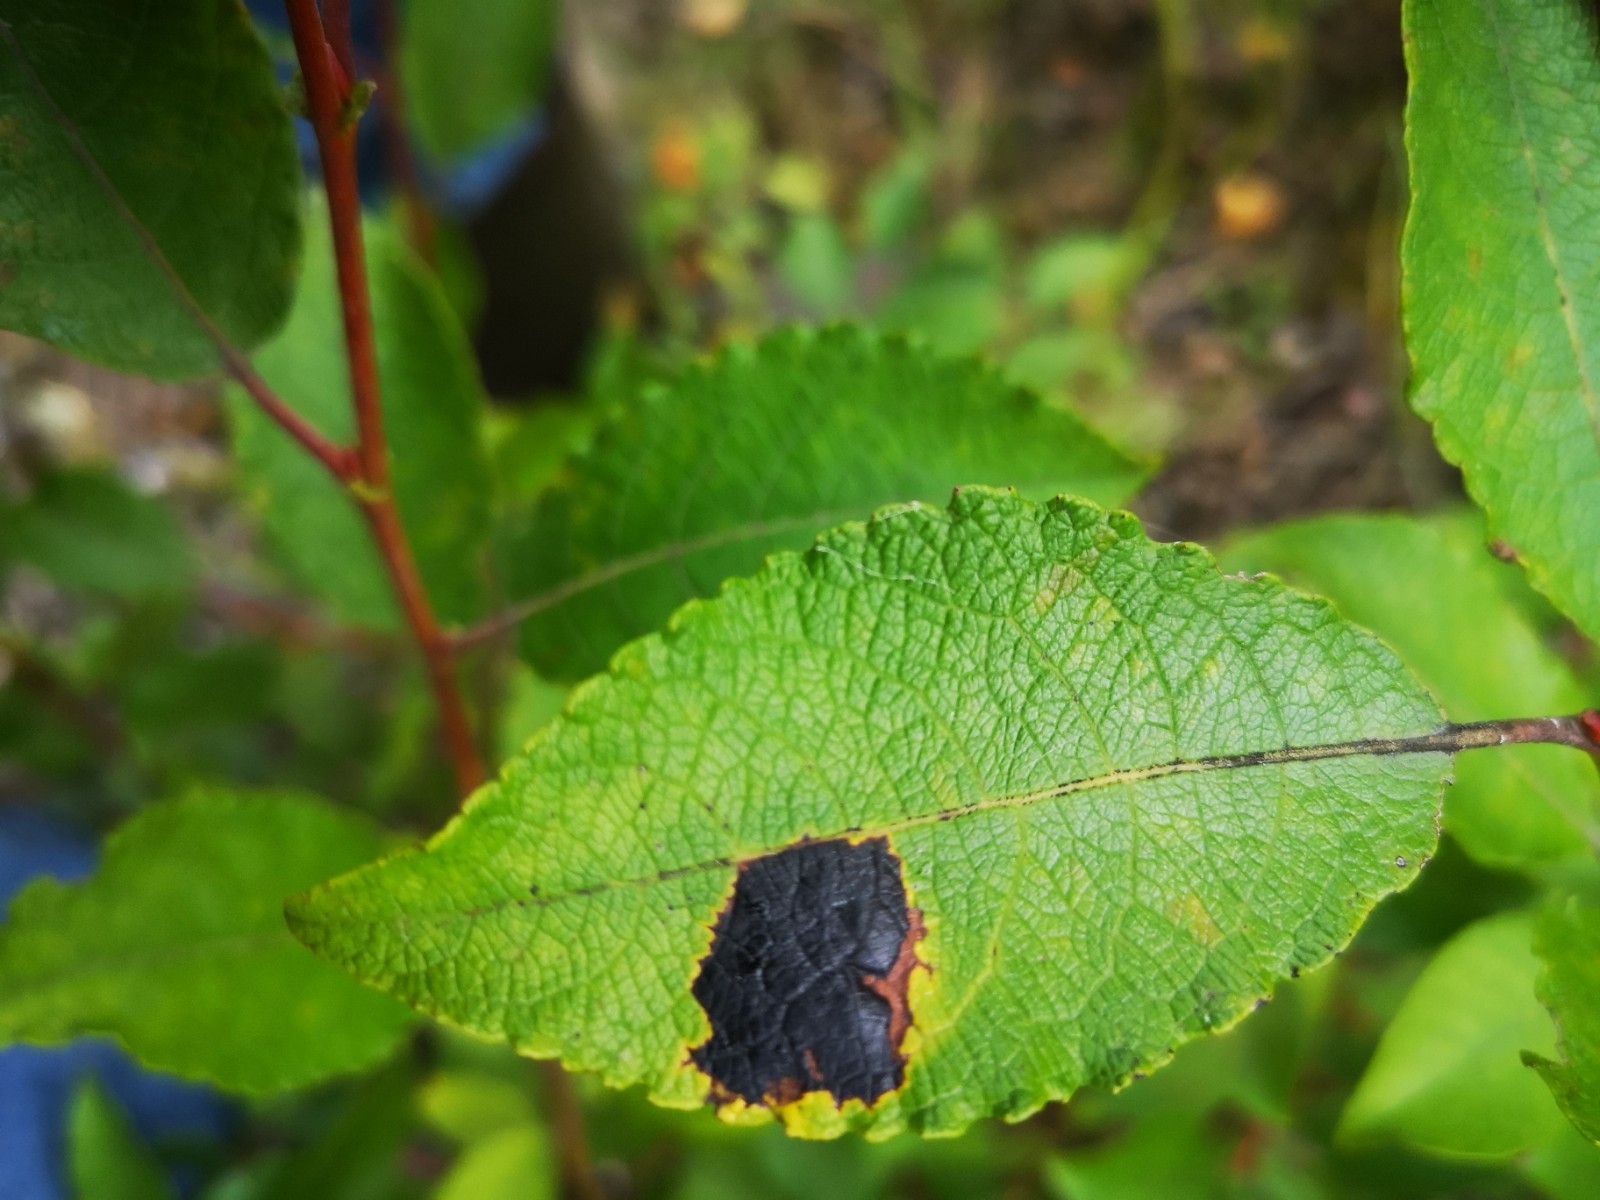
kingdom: Fungi
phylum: Ascomycota
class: Leotiomycetes
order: Rhytismatales
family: Rhytismataceae
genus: Rhytisma
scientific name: Rhytisma salicinum
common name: pile-rynkeplet
